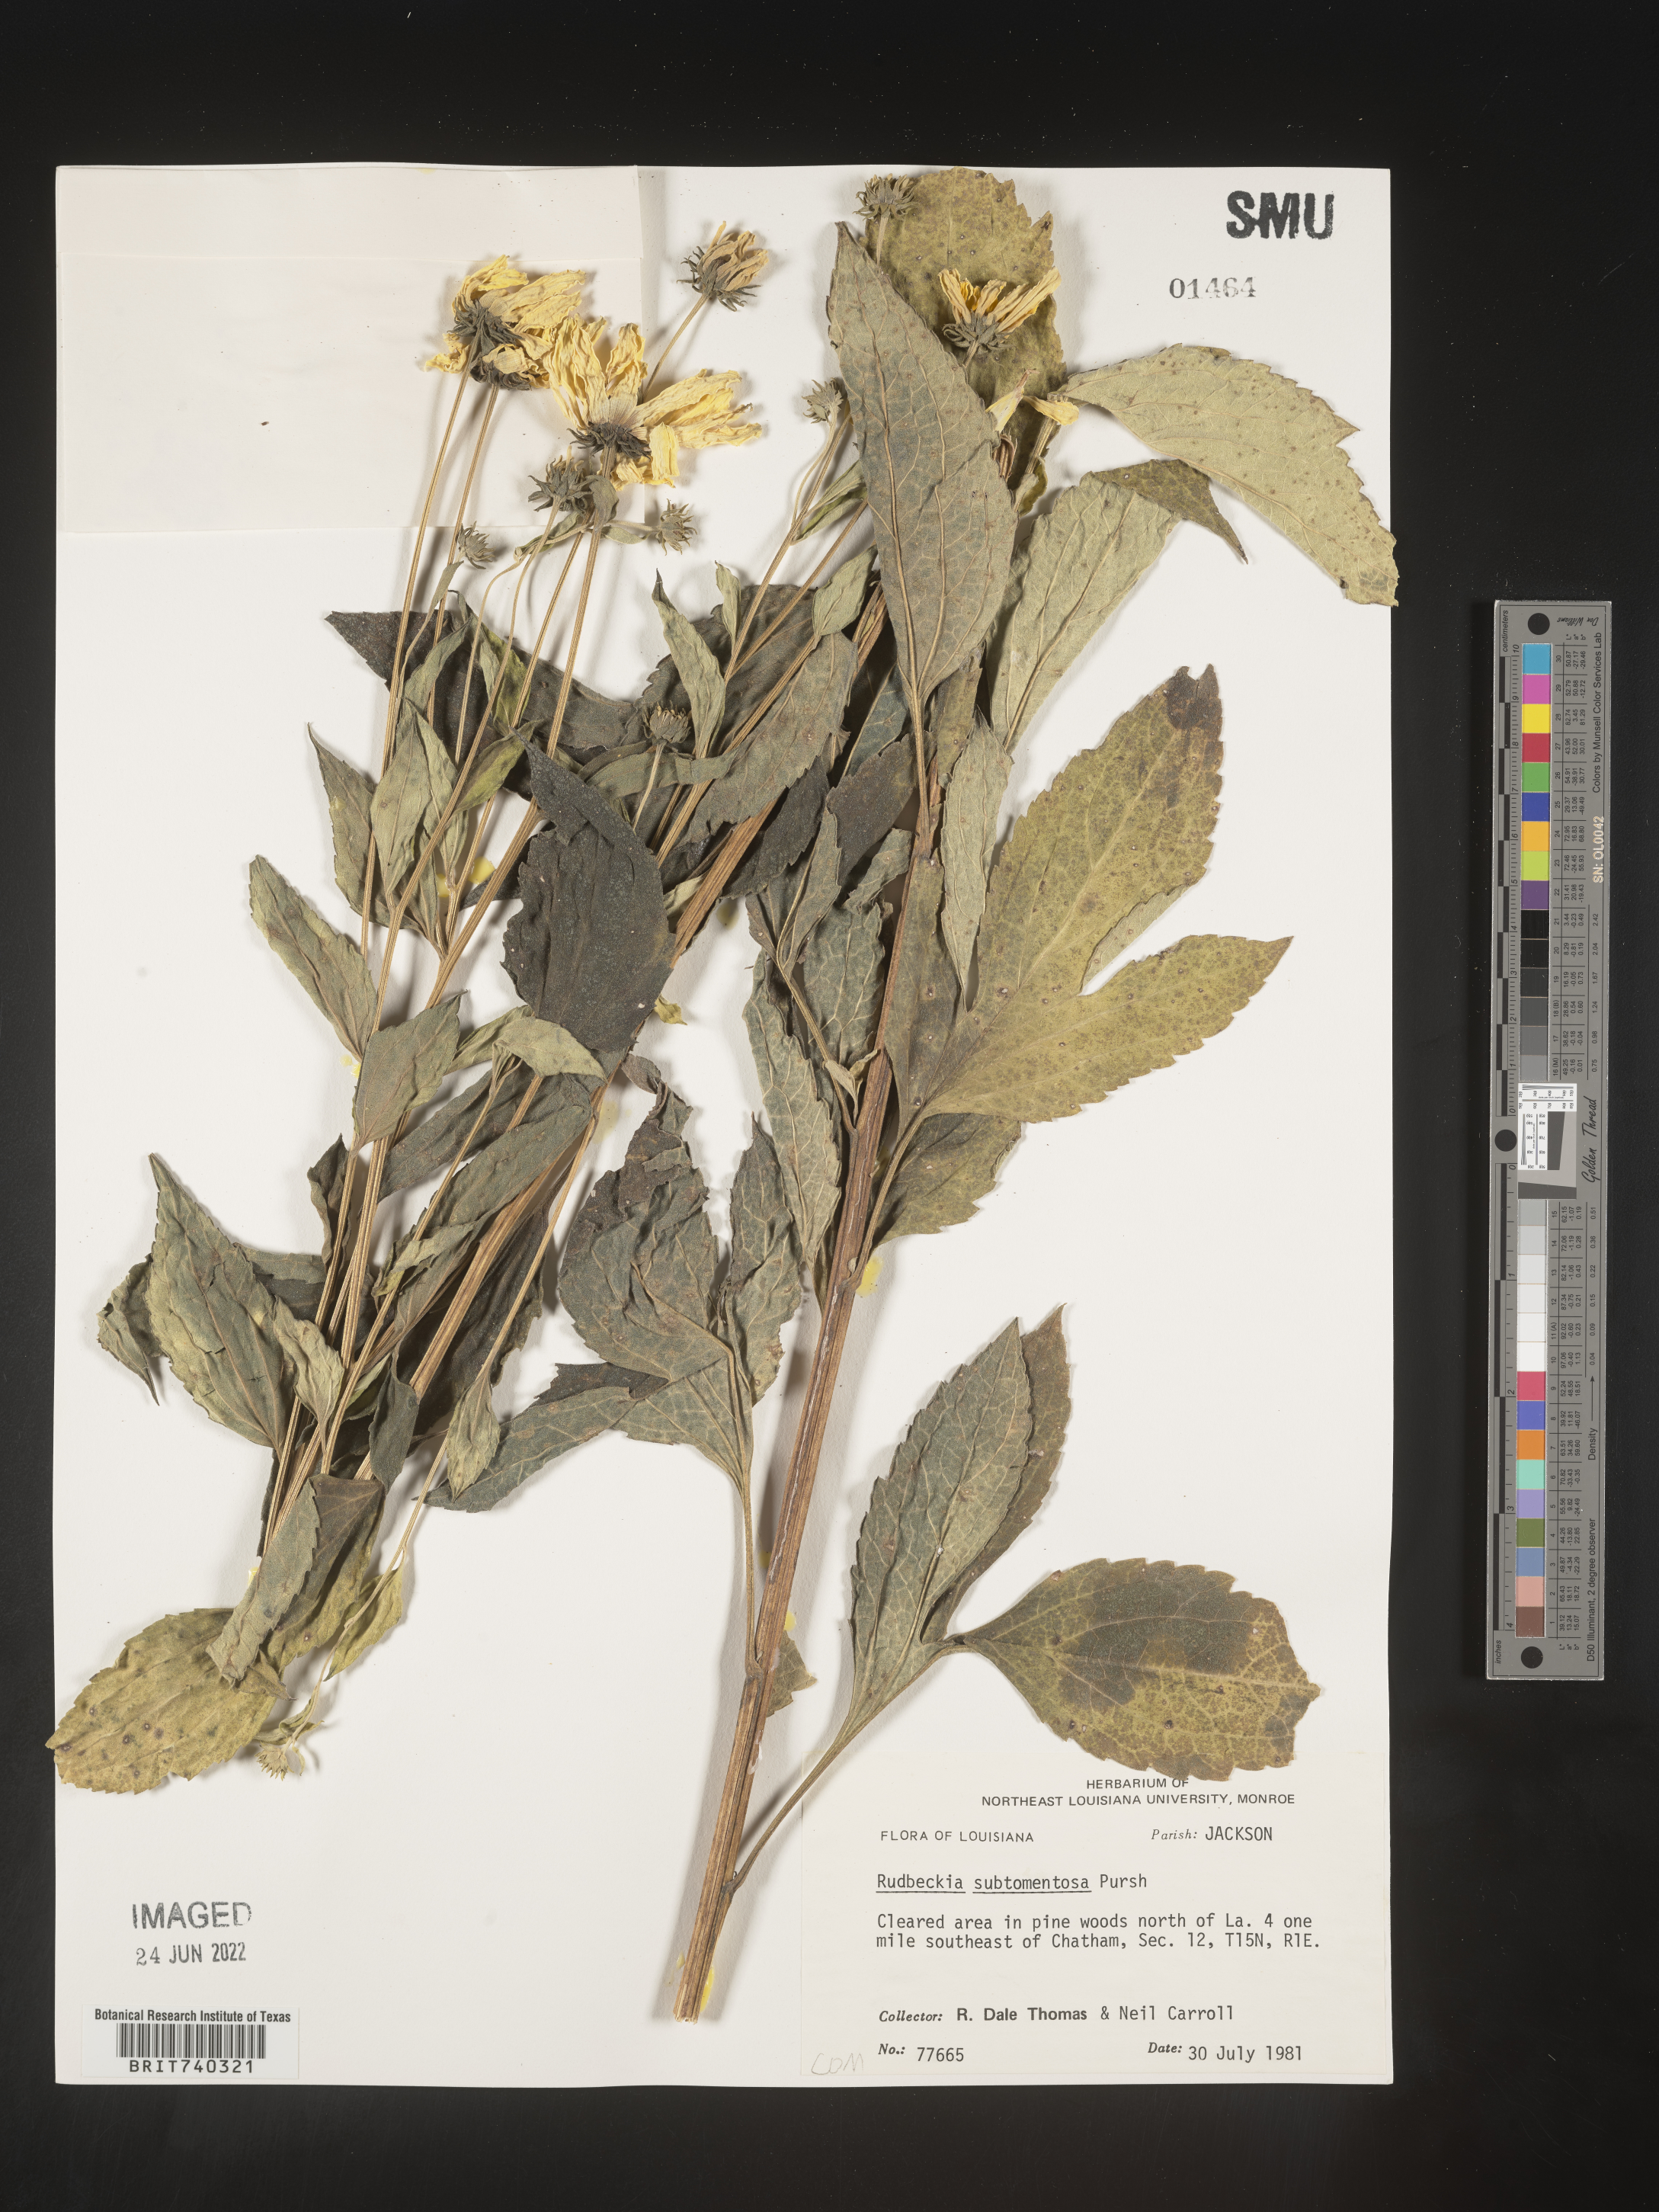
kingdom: Plantae
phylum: Tracheophyta
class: Magnoliopsida
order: Asterales
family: Asteraceae
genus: Rudbeckia
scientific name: Rudbeckia subtomentosa
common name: Sweet coneflower
